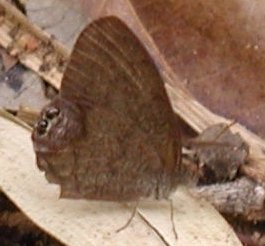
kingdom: Animalia
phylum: Arthropoda
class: Insecta
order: Lepidoptera
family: Nymphalidae
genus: Euptychia
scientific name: Euptychia cornelius
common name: Gemmed Satyr
